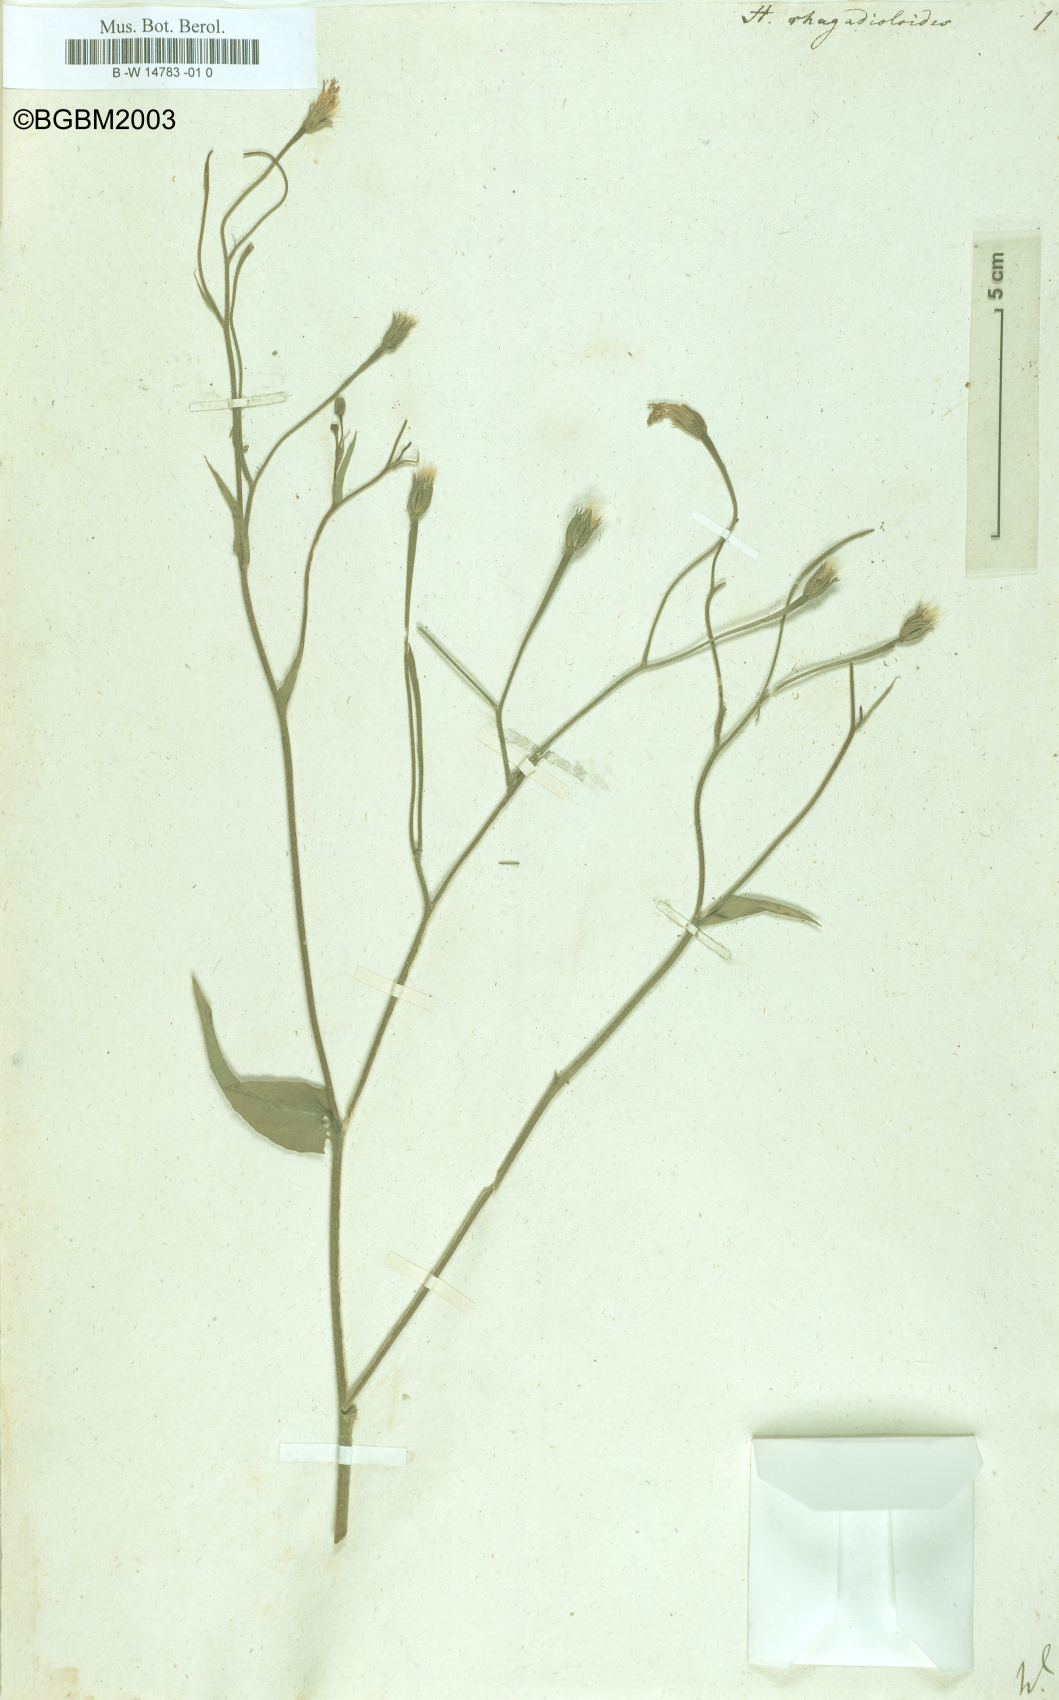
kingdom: Plantae
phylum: Tracheophyta
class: Magnoliopsida
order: Asterales
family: Asteraceae
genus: Hedypnois
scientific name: Hedypnois rhagadioloides
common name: Cretan weed
